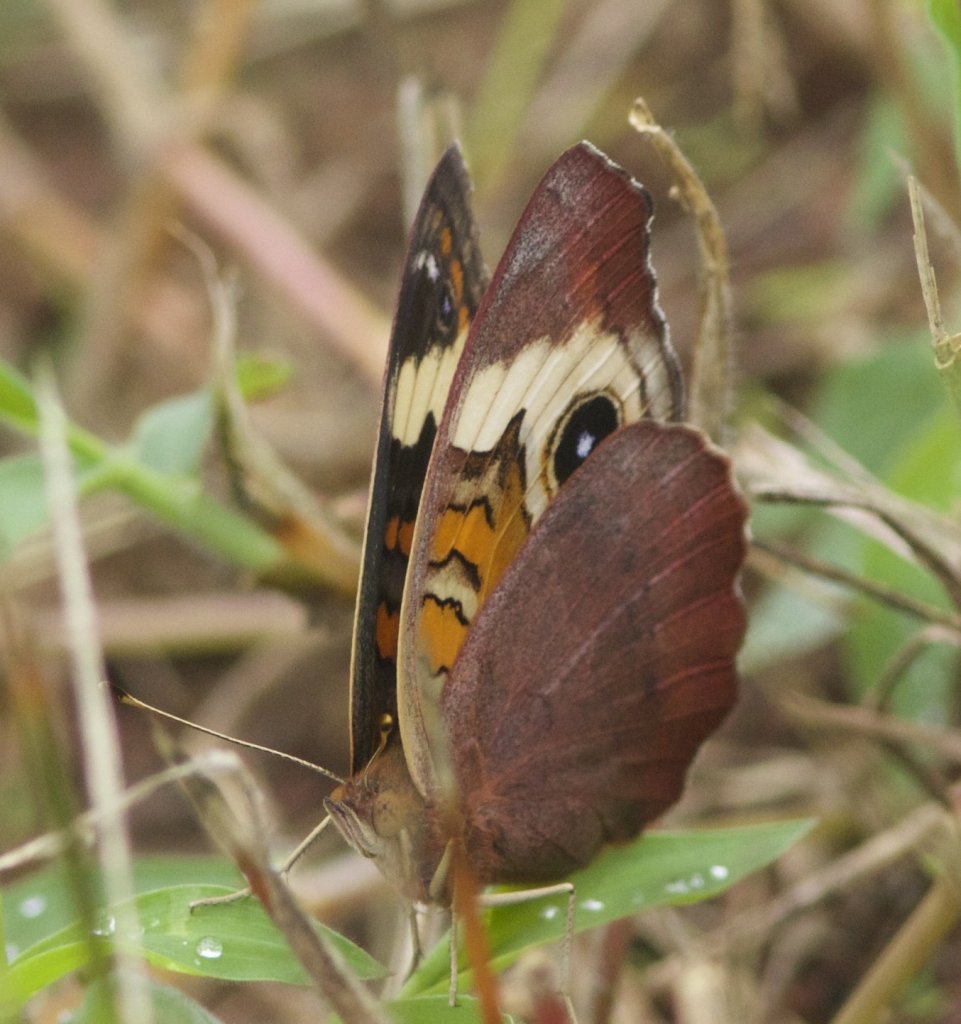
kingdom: Animalia
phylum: Arthropoda
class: Insecta
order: Lepidoptera
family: Nymphalidae
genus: Junonia
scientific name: Junonia coenia
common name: Common Buckeye
